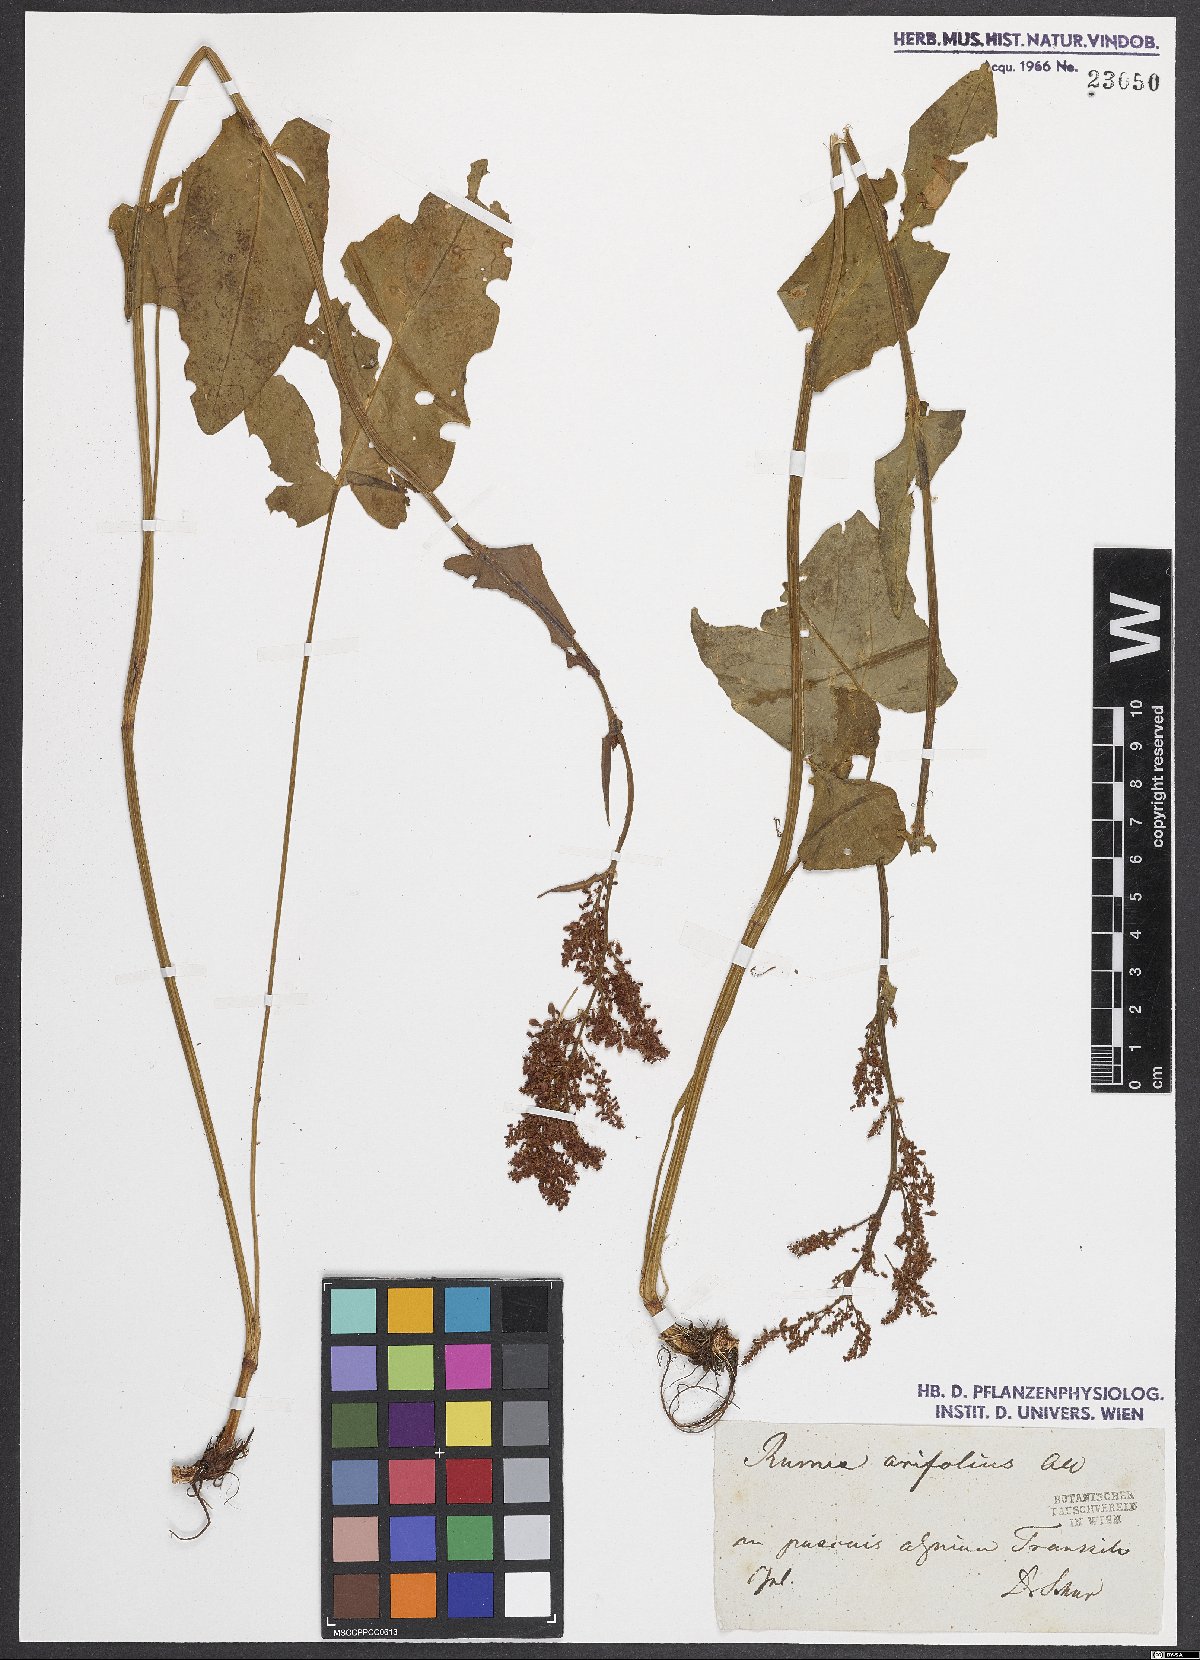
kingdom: Plantae
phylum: Tracheophyta
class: Magnoliopsida
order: Caryophyllales
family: Polygonaceae
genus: Rumex
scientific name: Rumex arifolius
